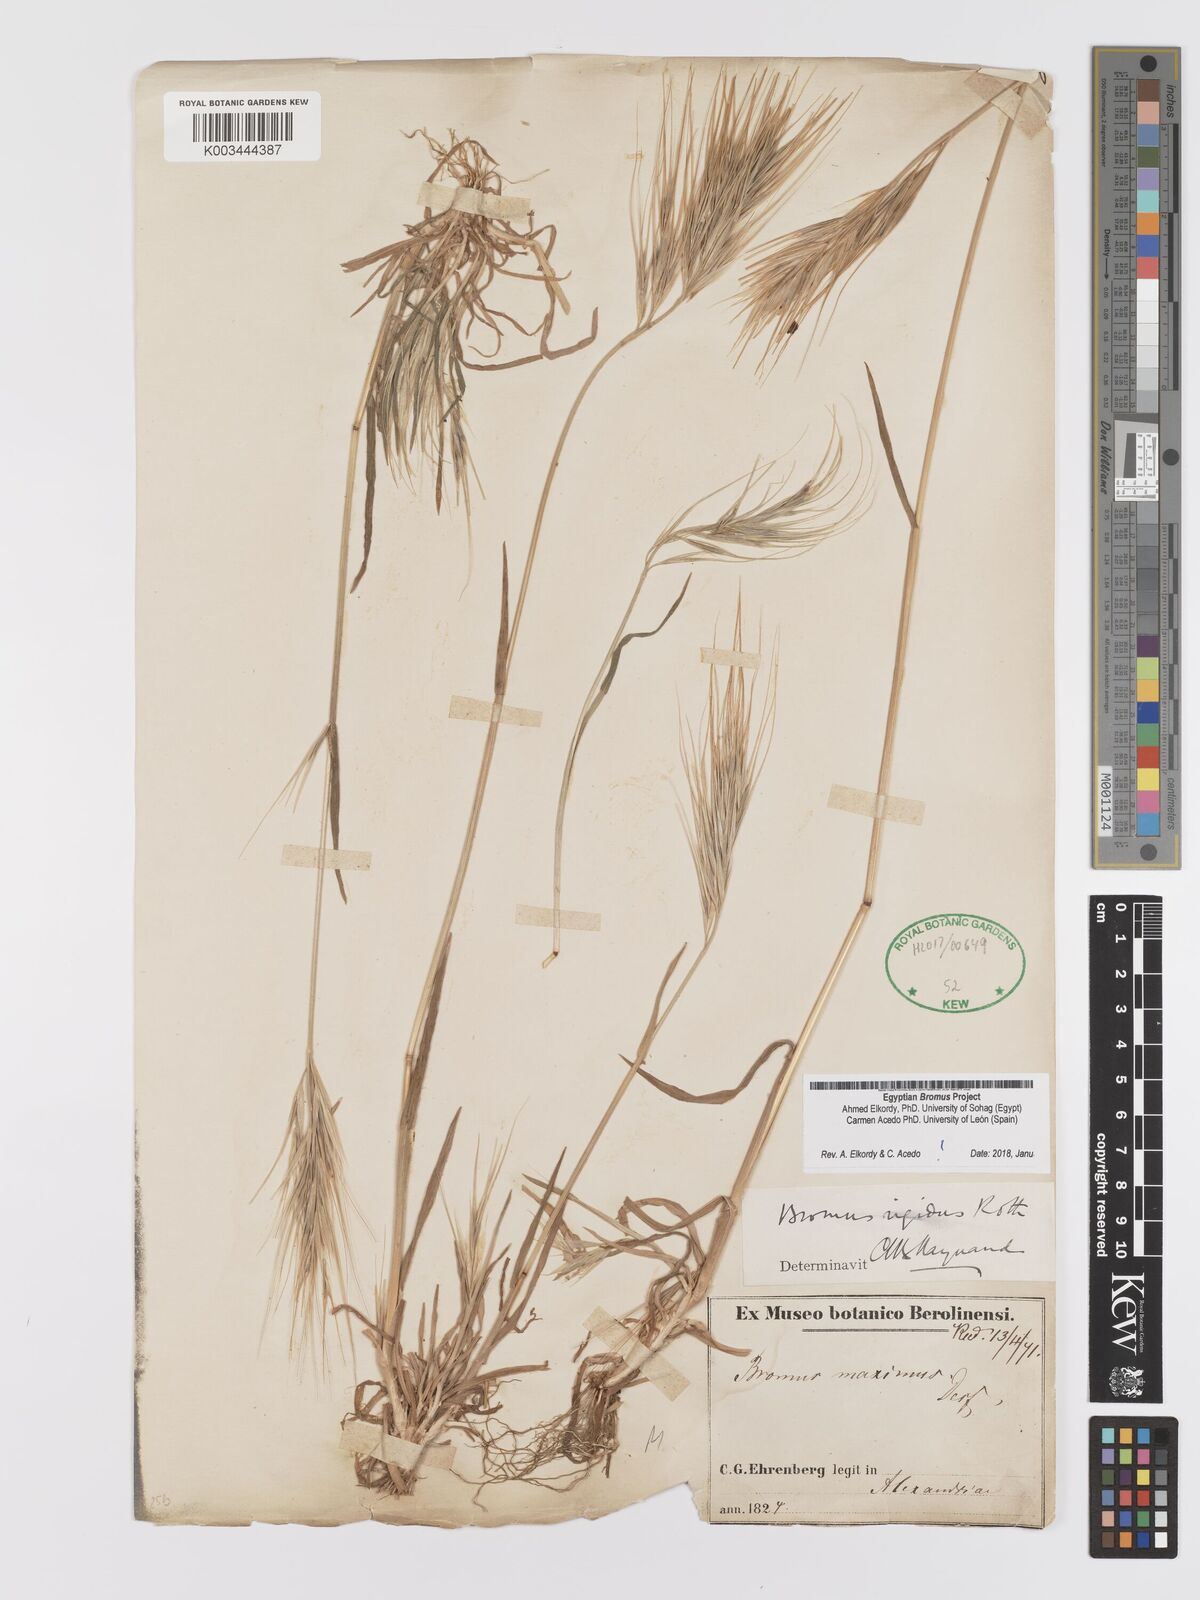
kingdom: Plantae
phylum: Tracheophyta
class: Liliopsida
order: Poales
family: Poaceae
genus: Bromus
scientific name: Bromus
